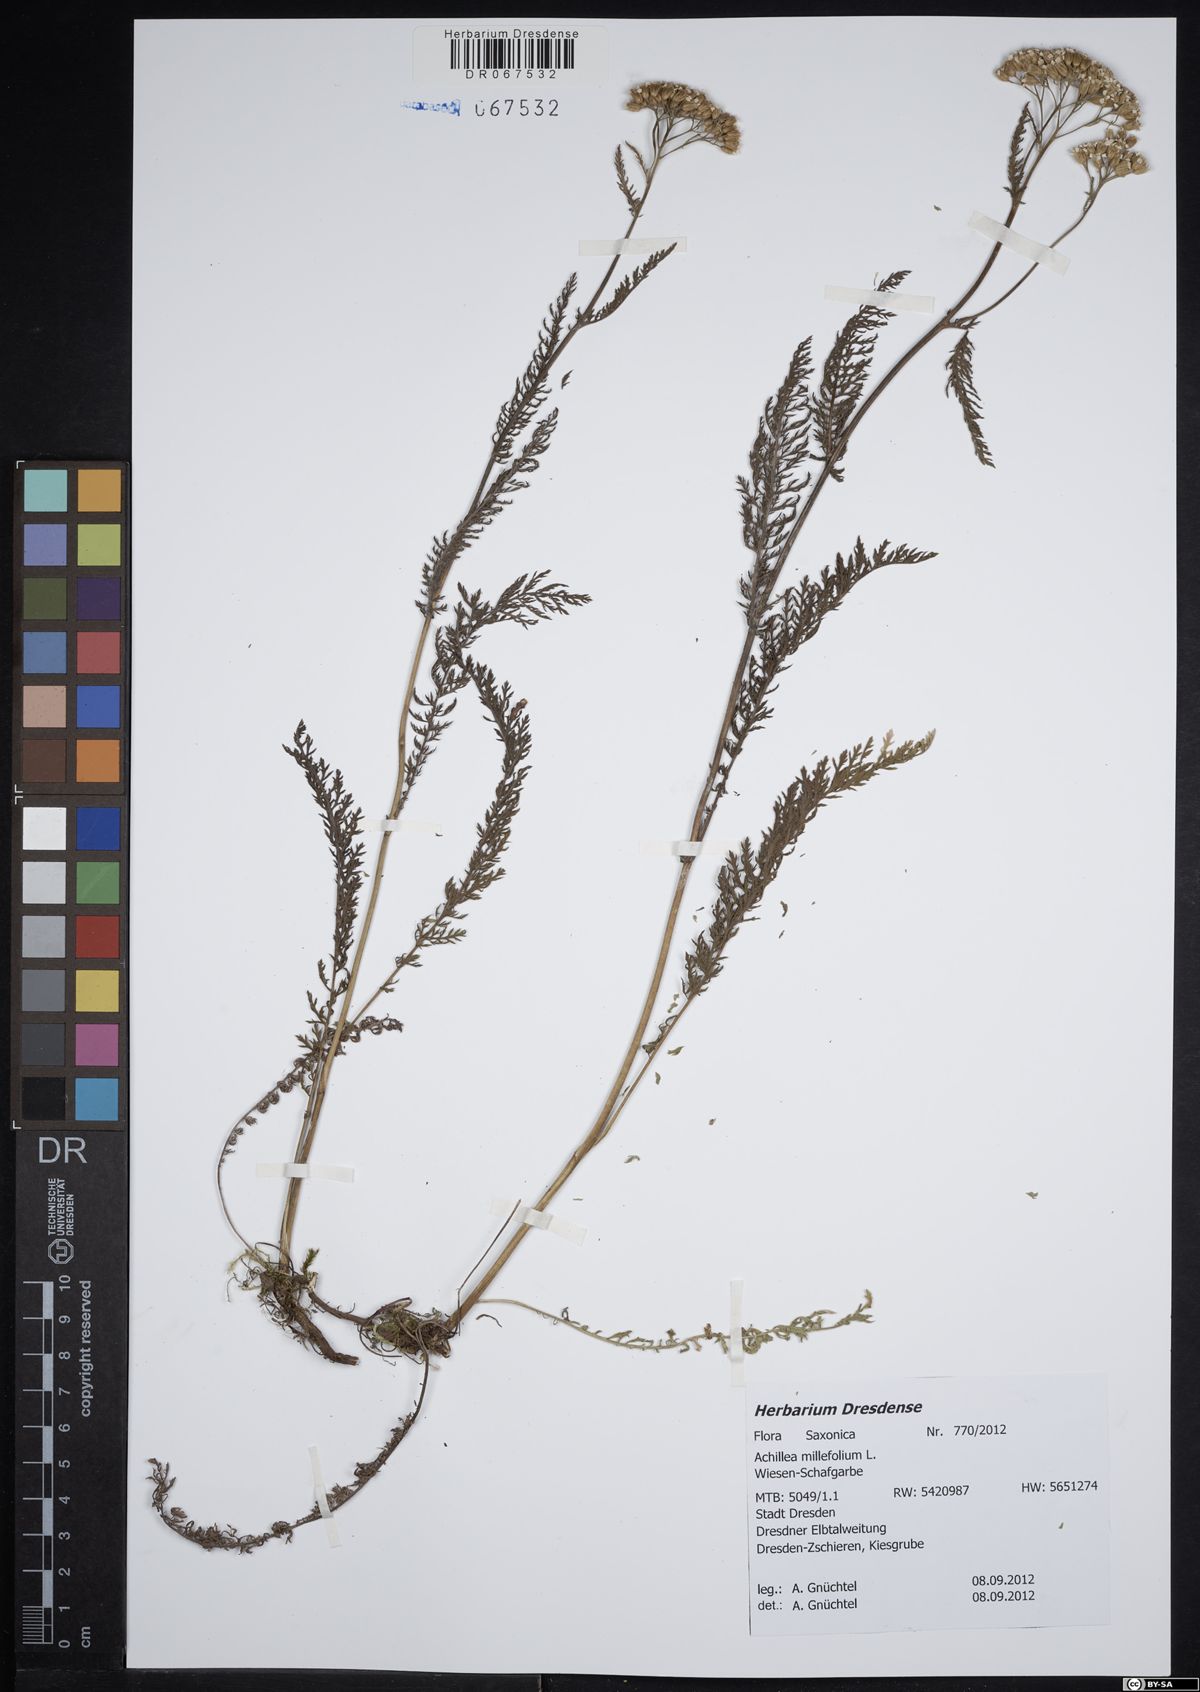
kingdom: Plantae
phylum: Tracheophyta
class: Magnoliopsida
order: Asterales
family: Asteraceae
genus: Achillea
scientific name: Achillea millefolium
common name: Yarrow
